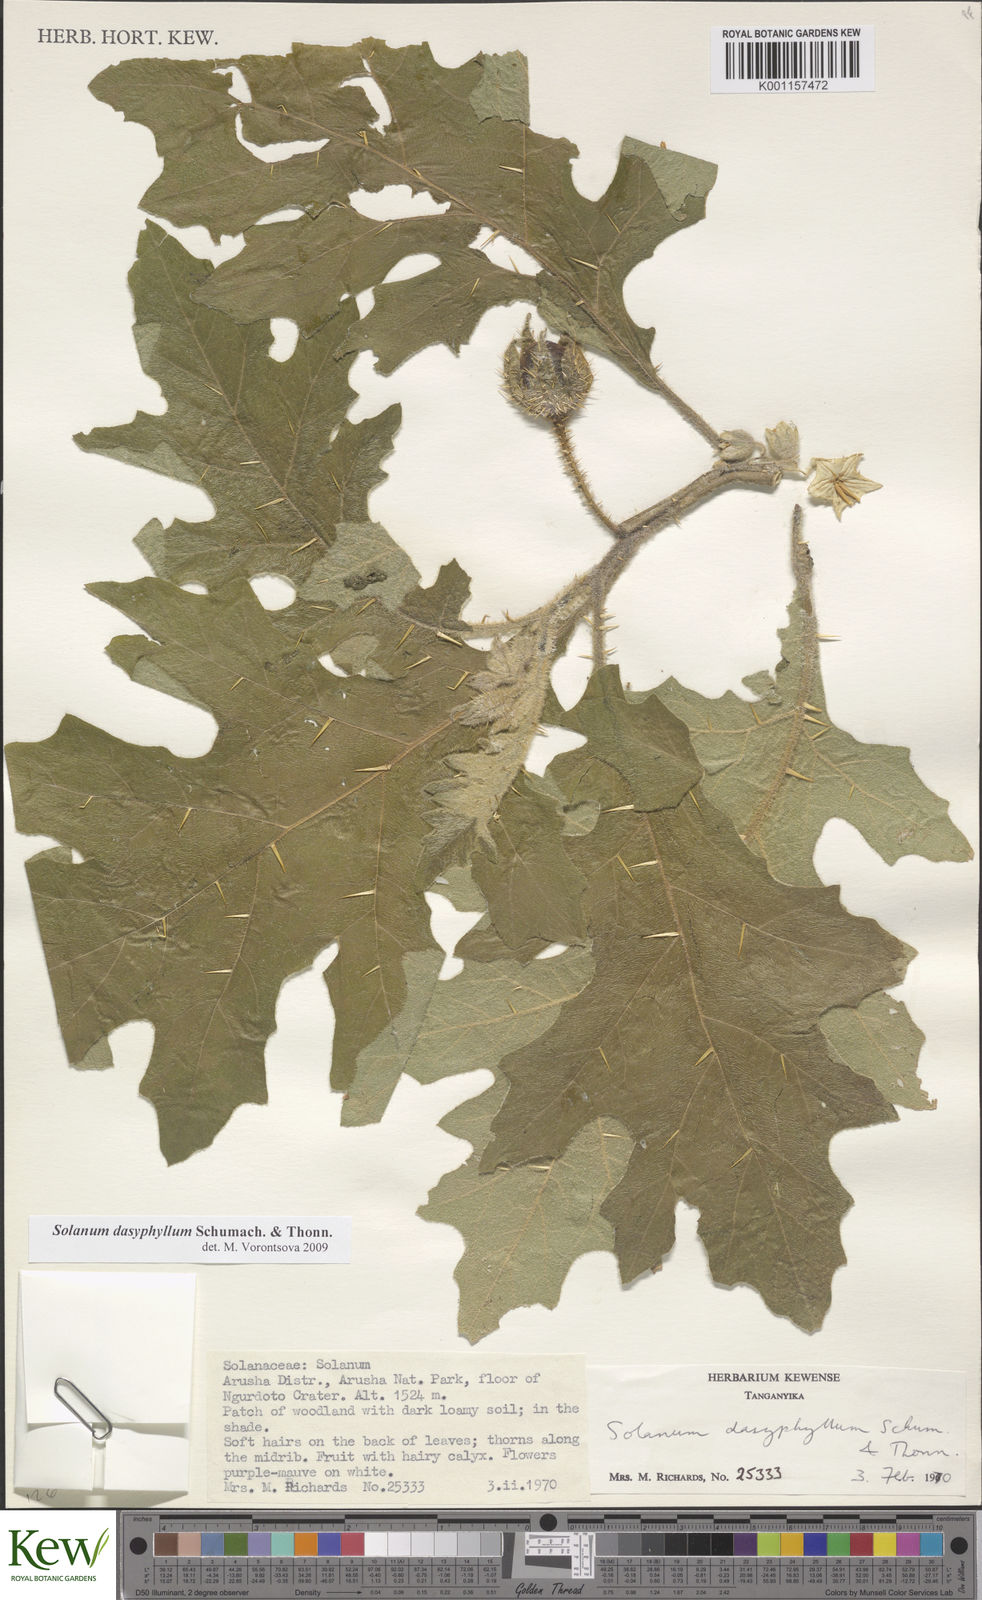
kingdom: Plantae
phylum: Tracheophyta
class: Magnoliopsida
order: Solanales
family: Solanaceae
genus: Solanum
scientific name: Solanum dasyphyllum
